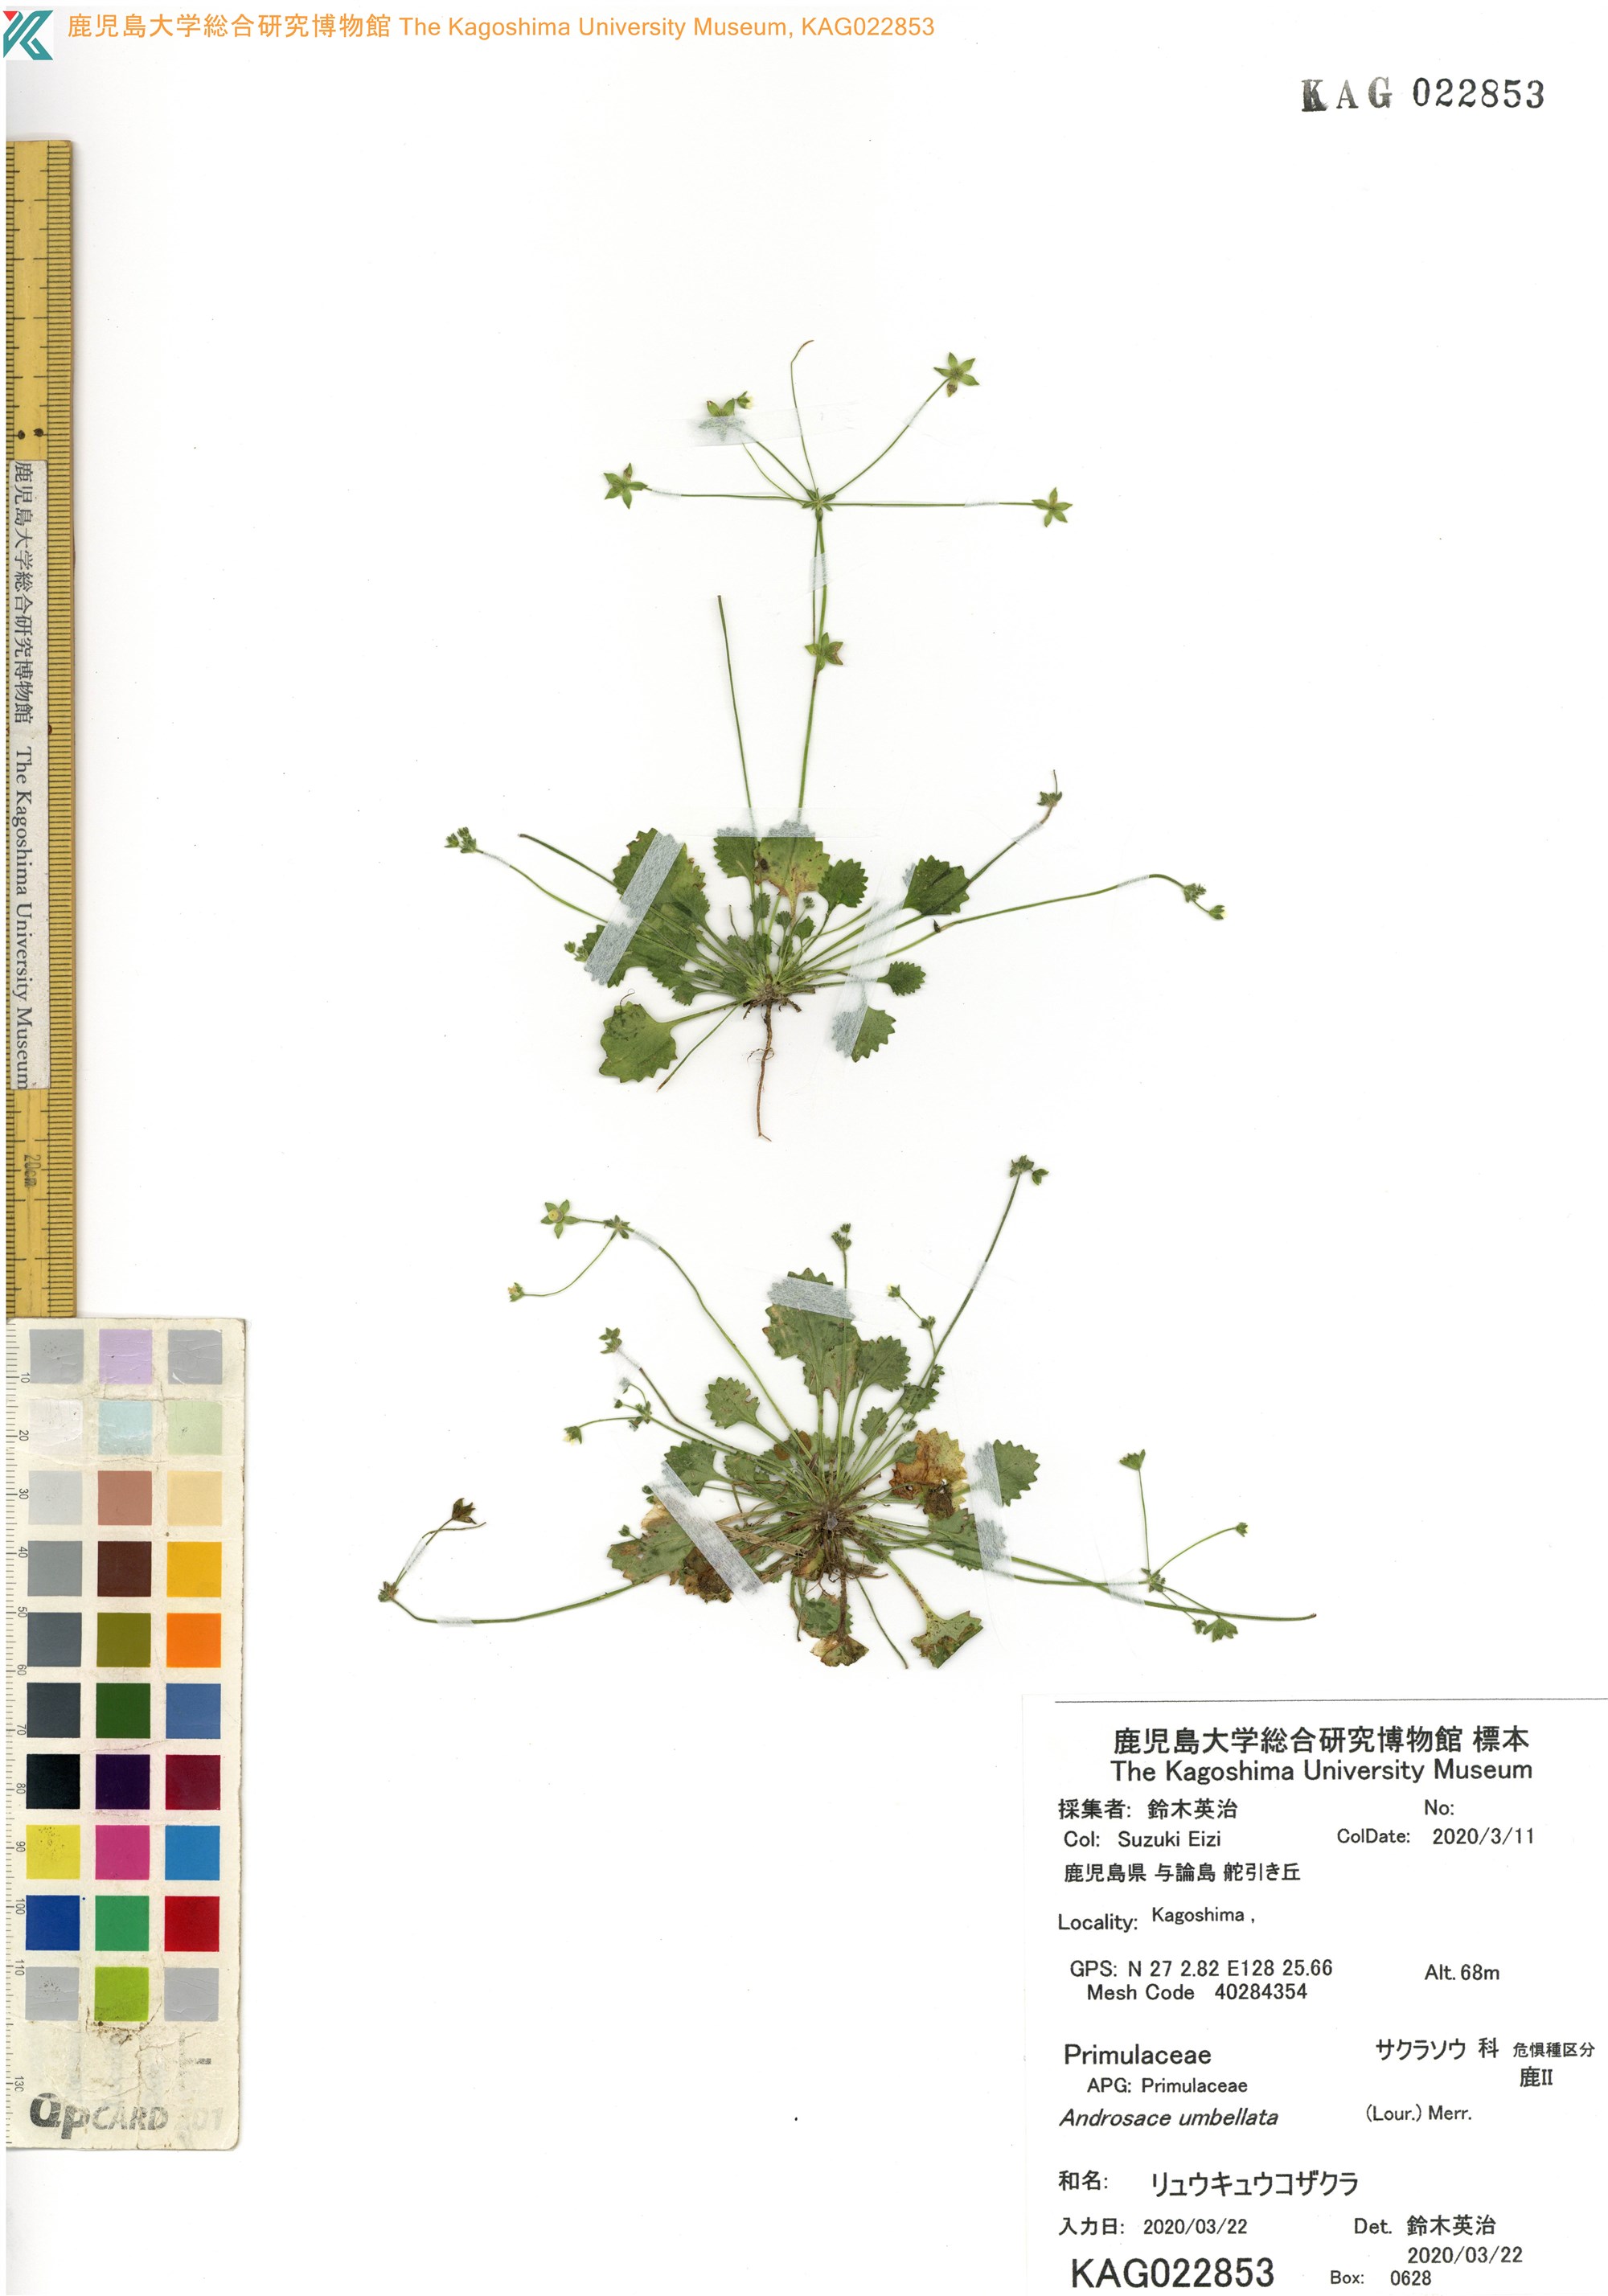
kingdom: Plantae
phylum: Tracheophyta
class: Magnoliopsida
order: Ericales
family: Primulaceae
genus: Androsace
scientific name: Androsace umbellata
